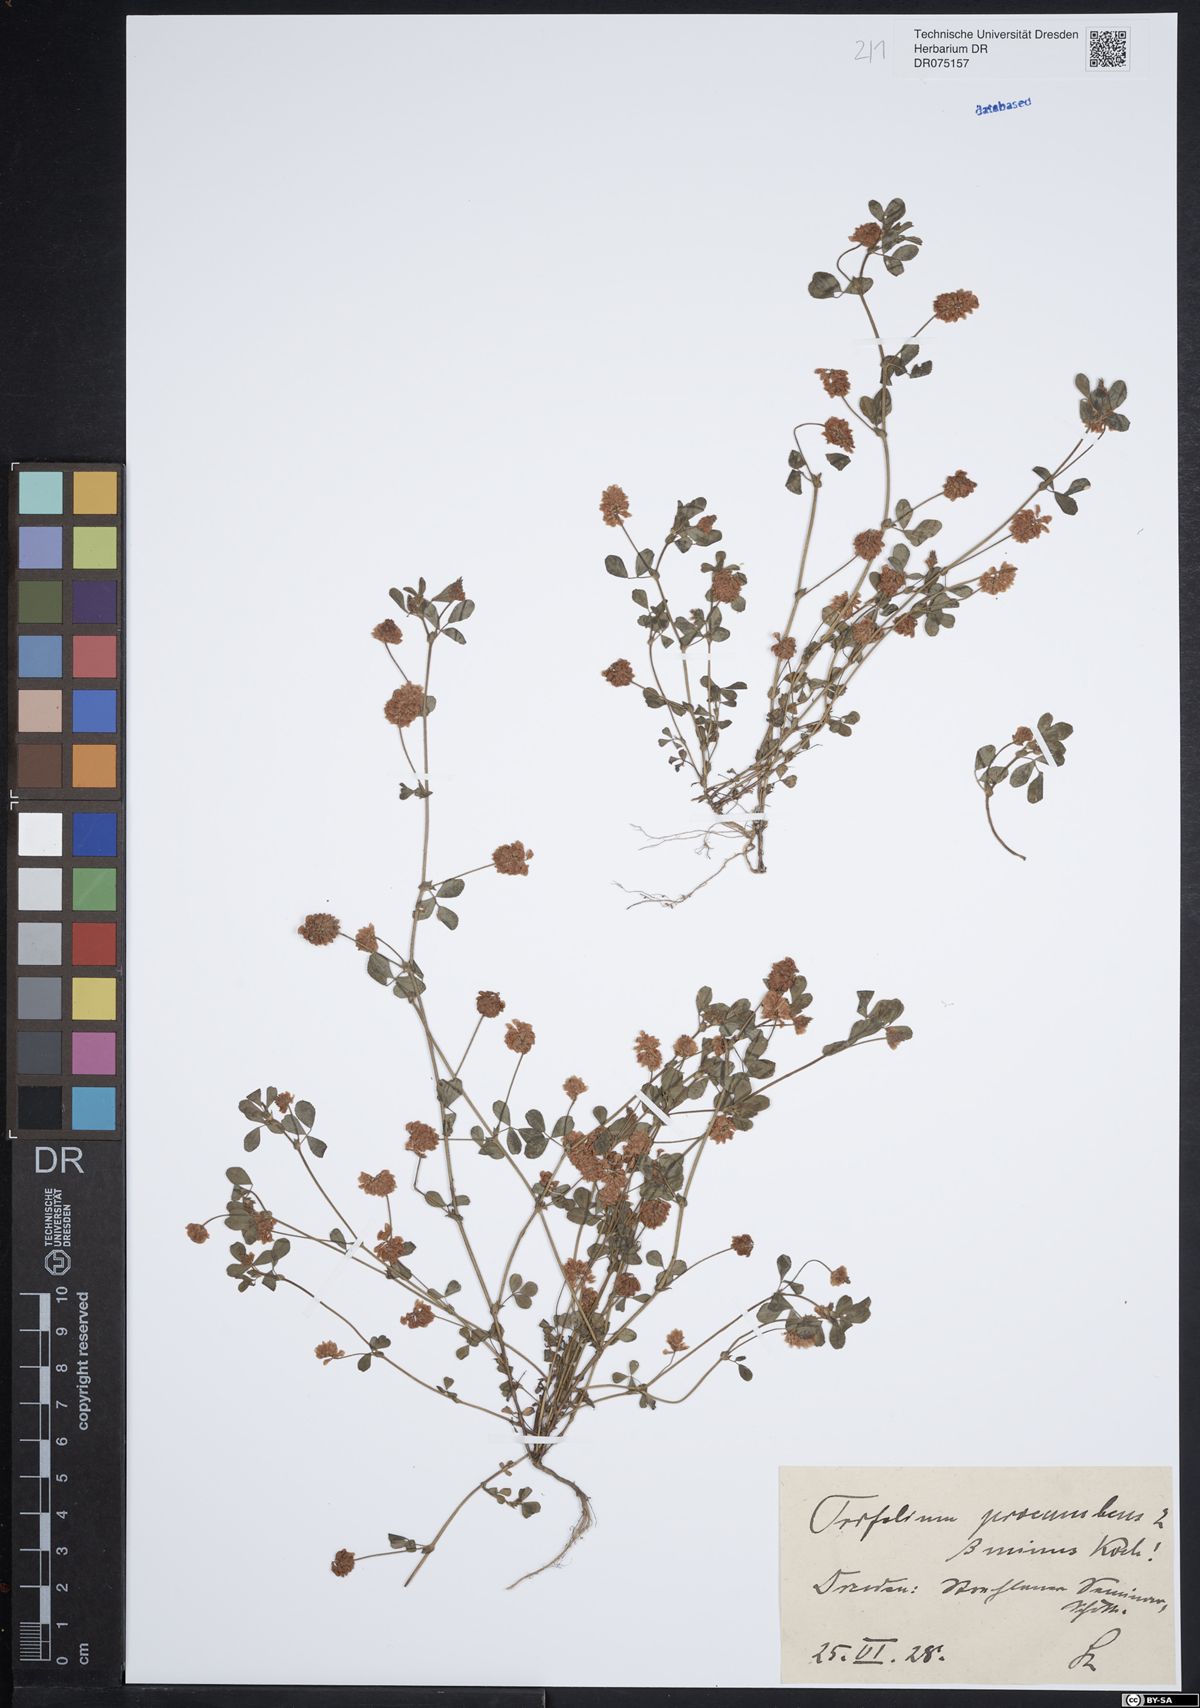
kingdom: Plantae
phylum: Tracheophyta
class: Magnoliopsida
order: Fabales
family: Fabaceae
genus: Trifolium
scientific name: Trifolium campestre
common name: Field clover
